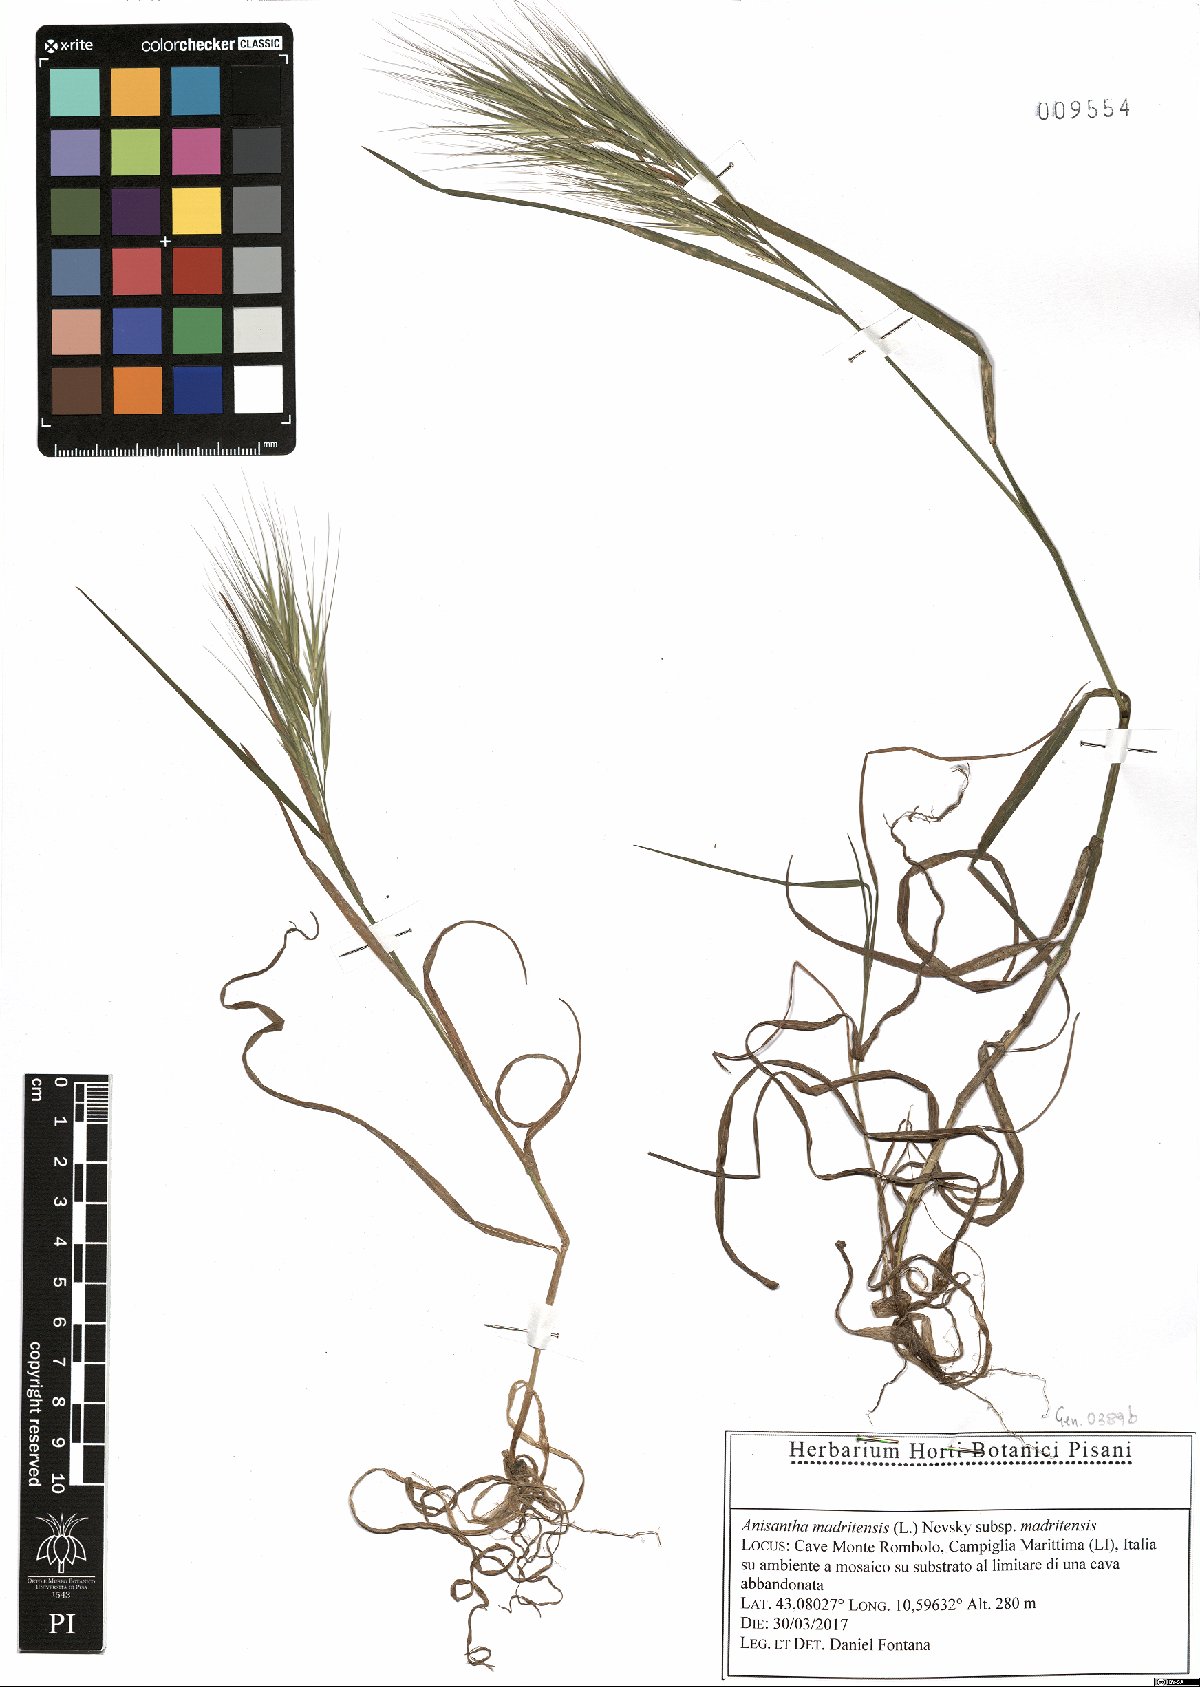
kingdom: Plantae
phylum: Tracheophyta
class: Liliopsida
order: Poales
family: Poaceae
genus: Bromus
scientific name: Bromus madritensis
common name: Compact brome
